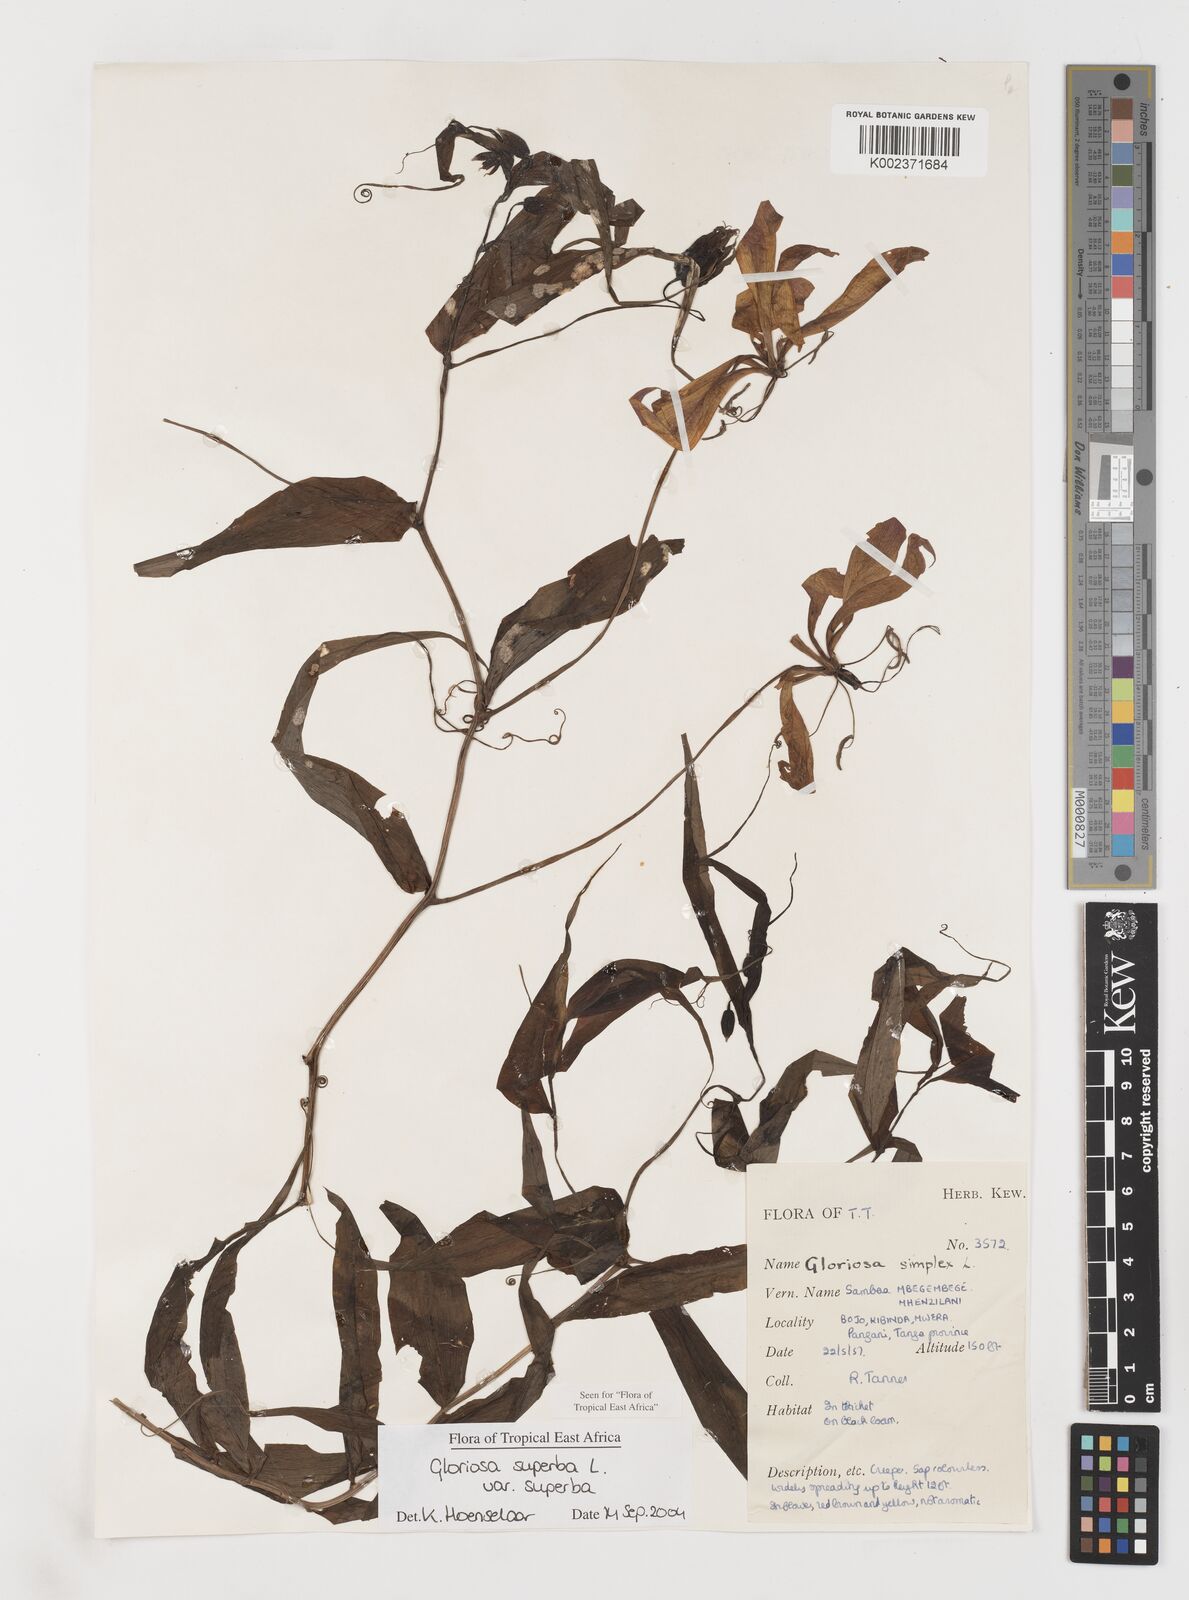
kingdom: Plantae
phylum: Tracheophyta
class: Liliopsida
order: Liliales
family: Colchicaceae
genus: Gloriosa
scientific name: Gloriosa simplex
